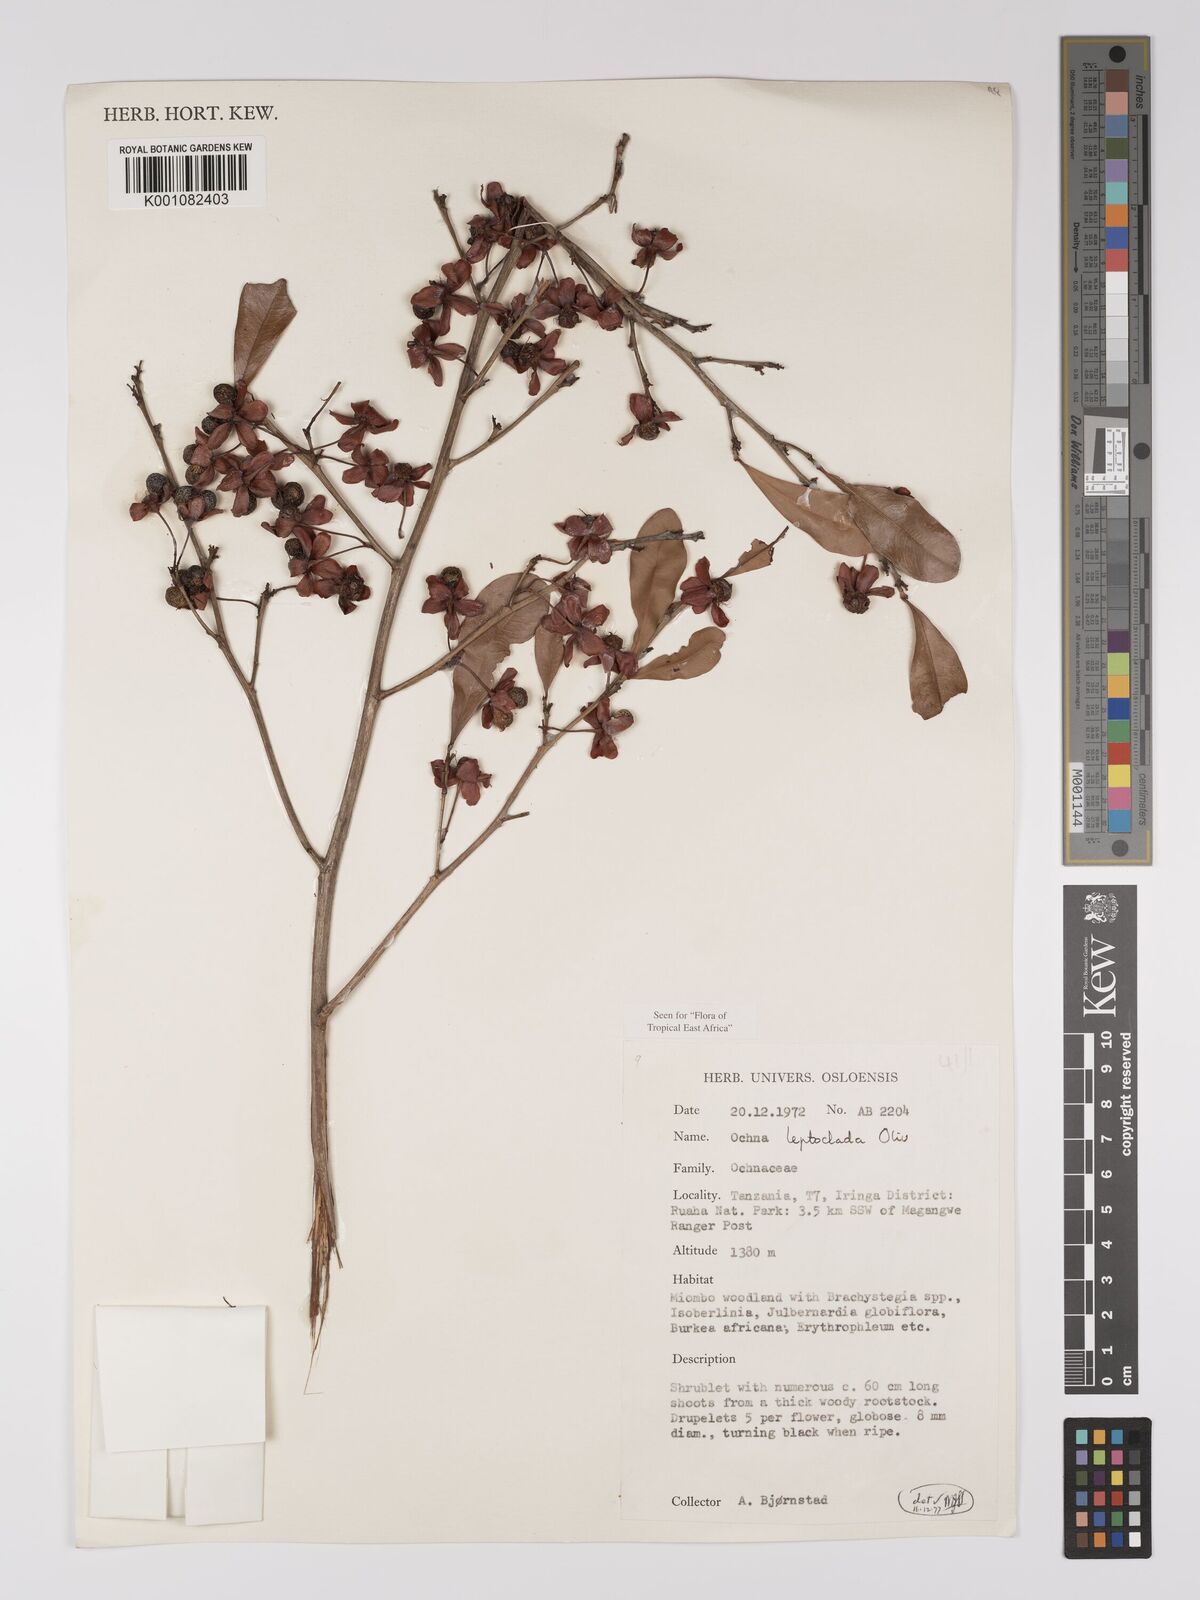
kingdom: Plantae
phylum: Tracheophyta
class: Magnoliopsida
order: Malpighiales
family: Ochnaceae
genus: Ochna
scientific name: Ochna leptoclada
